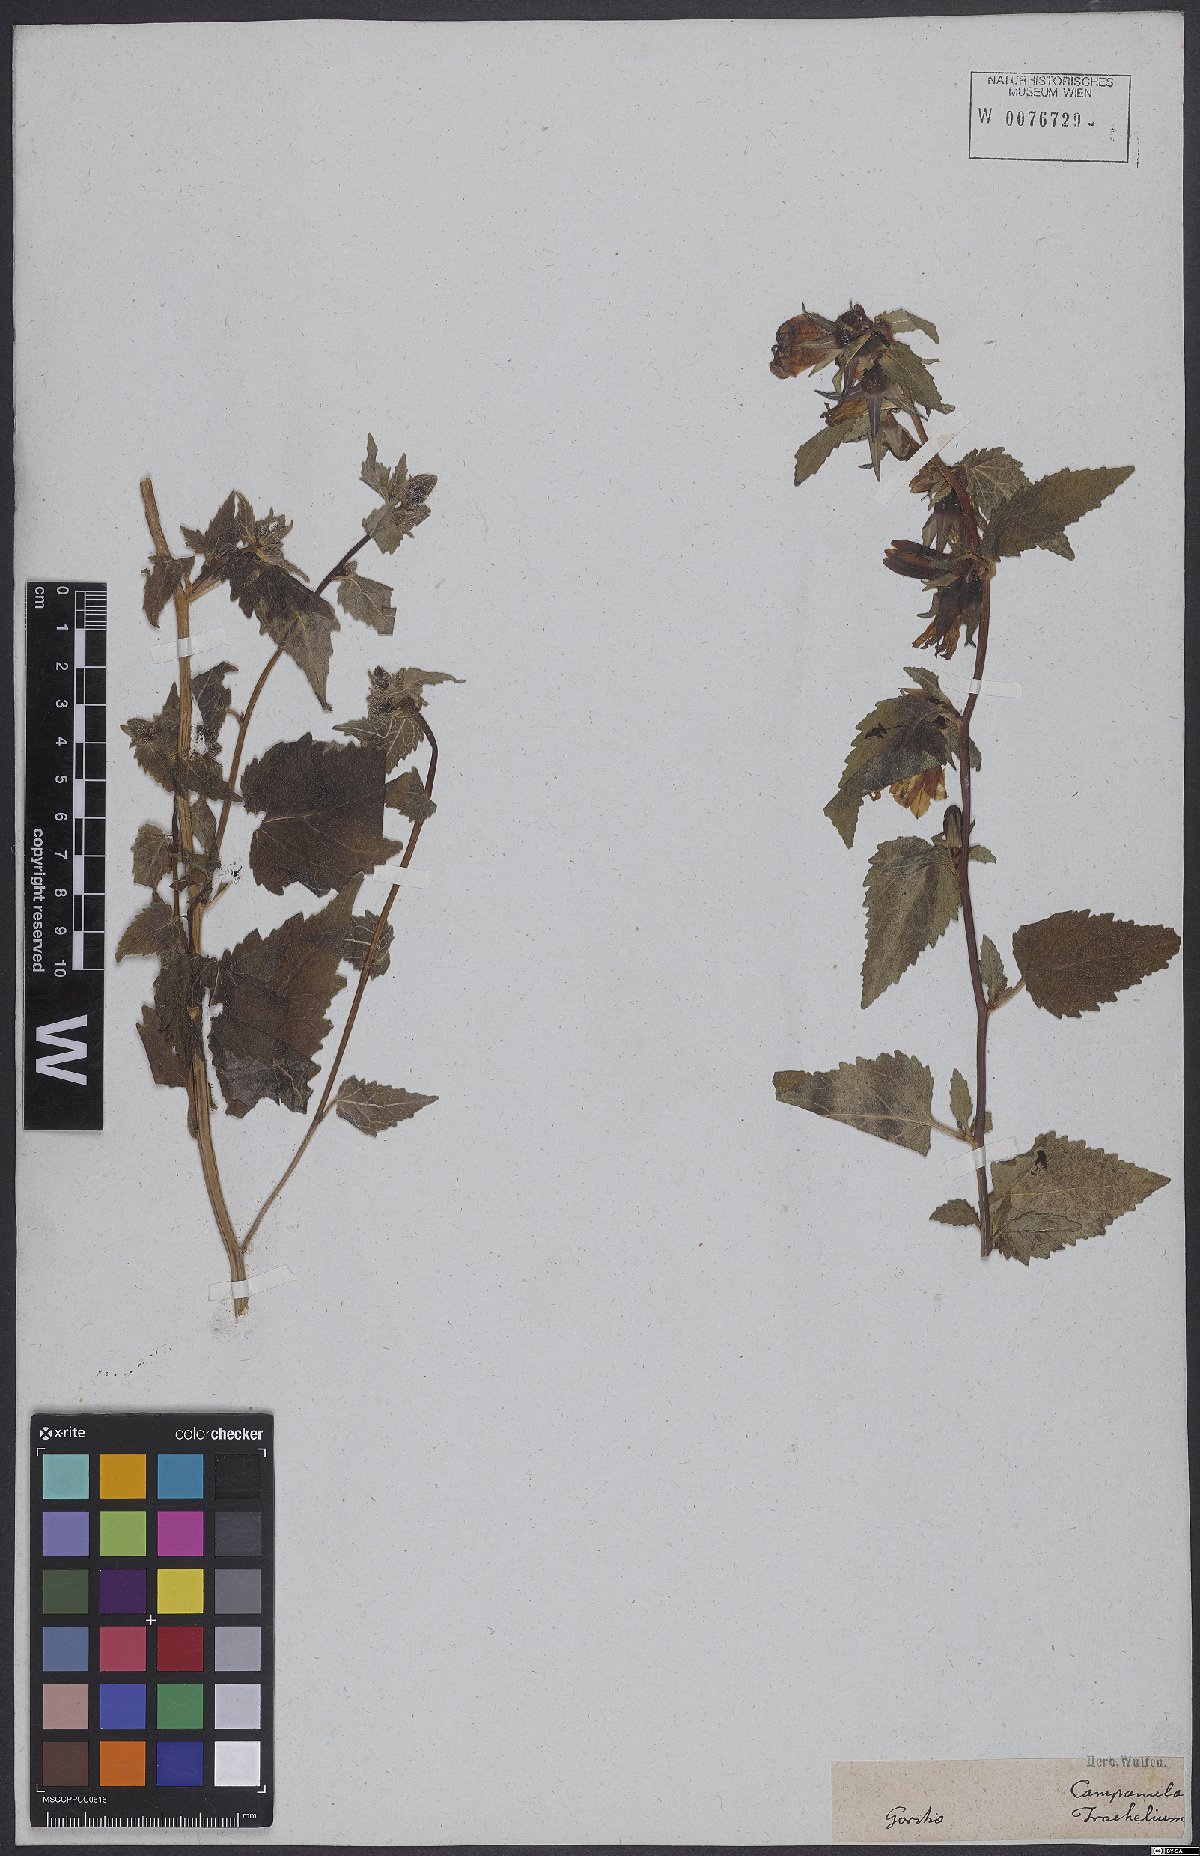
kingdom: Plantae
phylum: Tracheophyta
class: Magnoliopsida
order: Asterales
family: Campanulaceae
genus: Campanula
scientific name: Campanula trachelium
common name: Nettle-leaved bellflower
